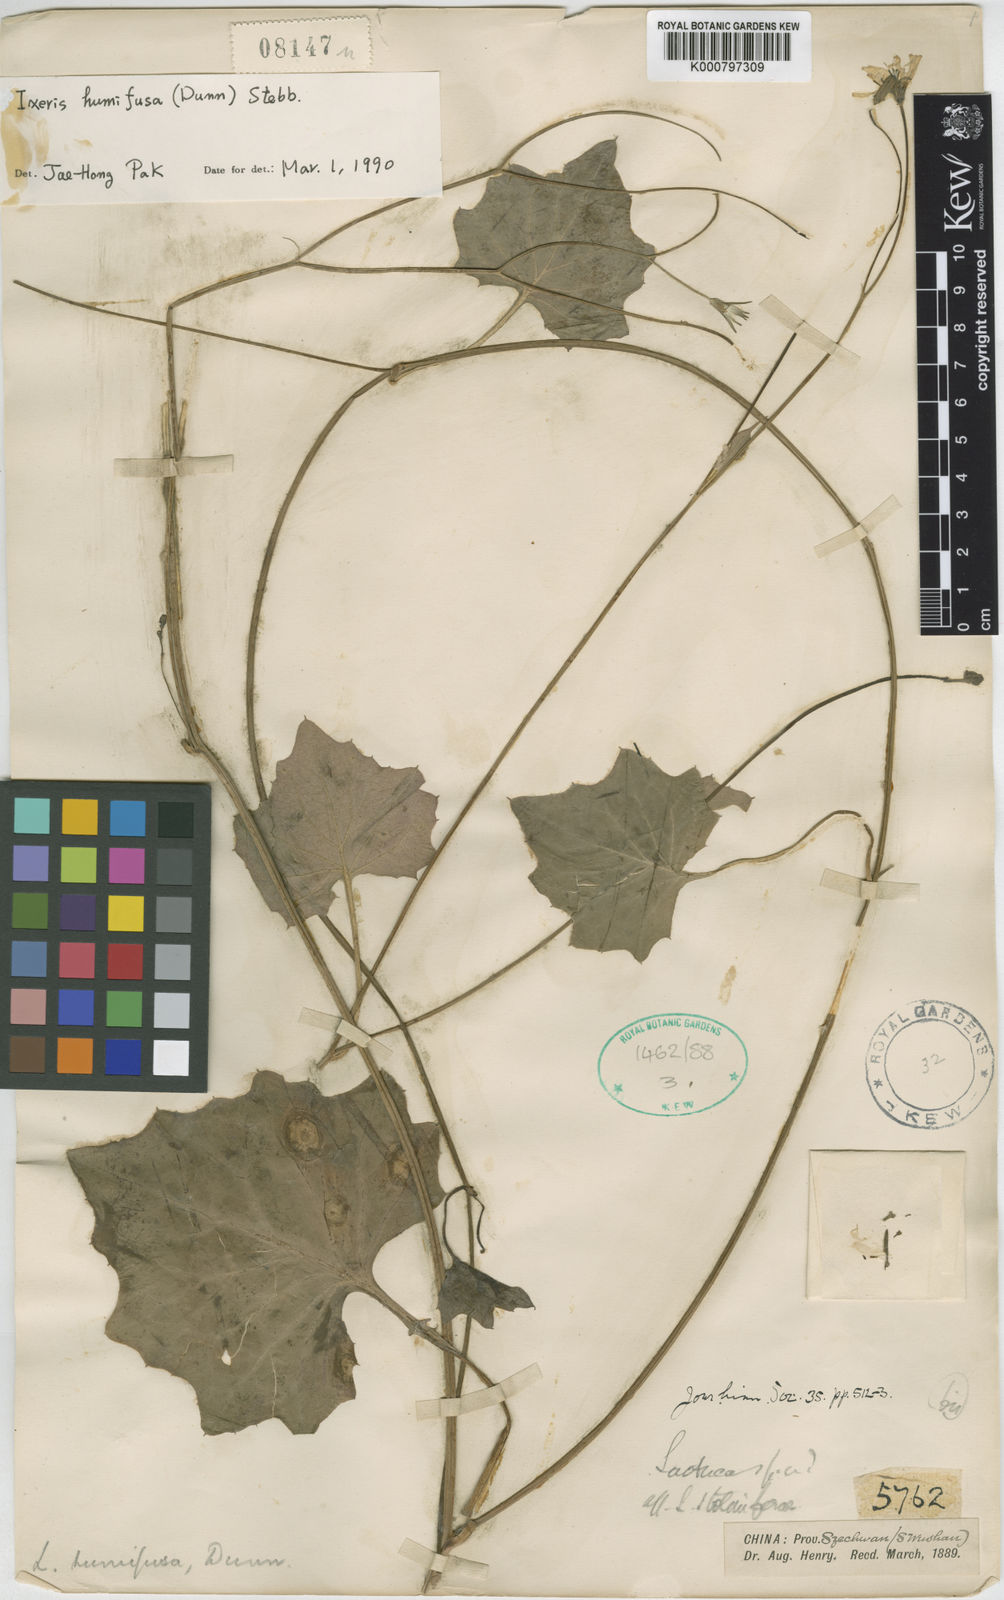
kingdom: Plantae
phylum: Tracheophyta
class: Magnoliopsida
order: Asterales
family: Asteraceae
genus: Youngia
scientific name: Youngia humifusa
